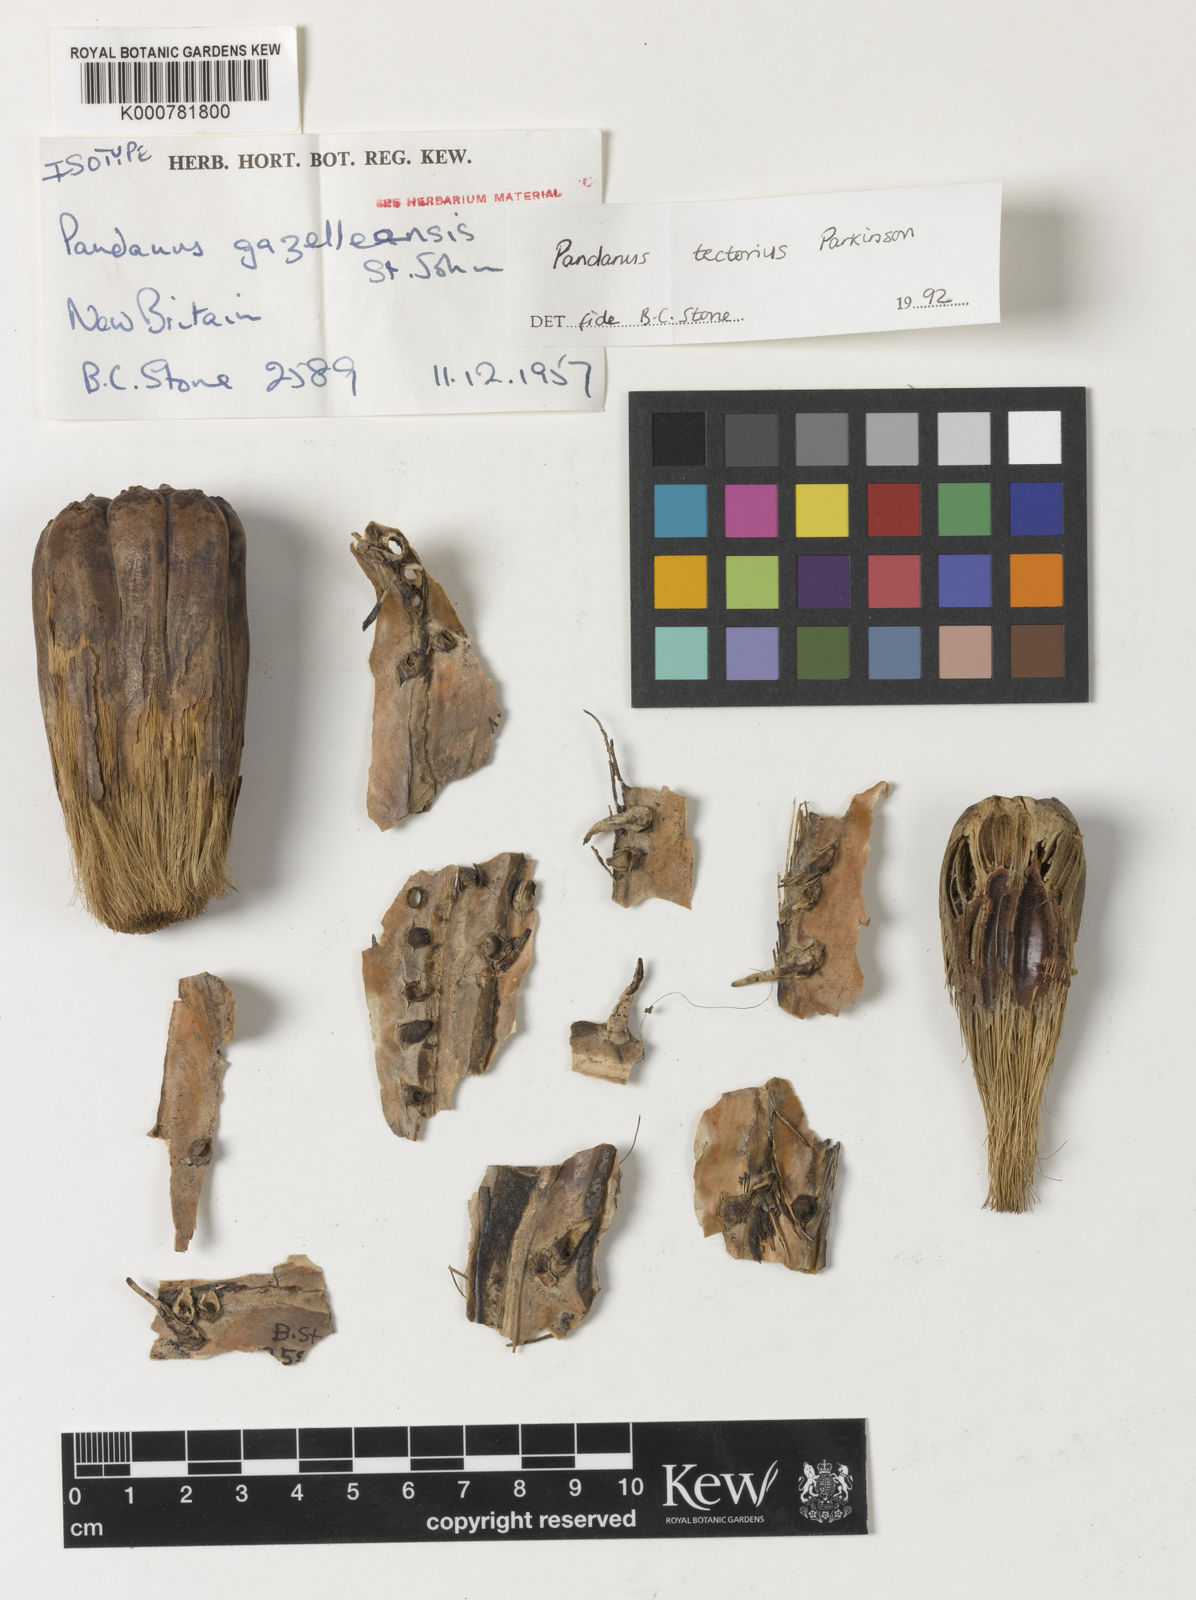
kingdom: Plantae
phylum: Tracheophyta
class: Liliopsida
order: Pandanales
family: Pandanaceae
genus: Pandanus
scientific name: Pandanus
